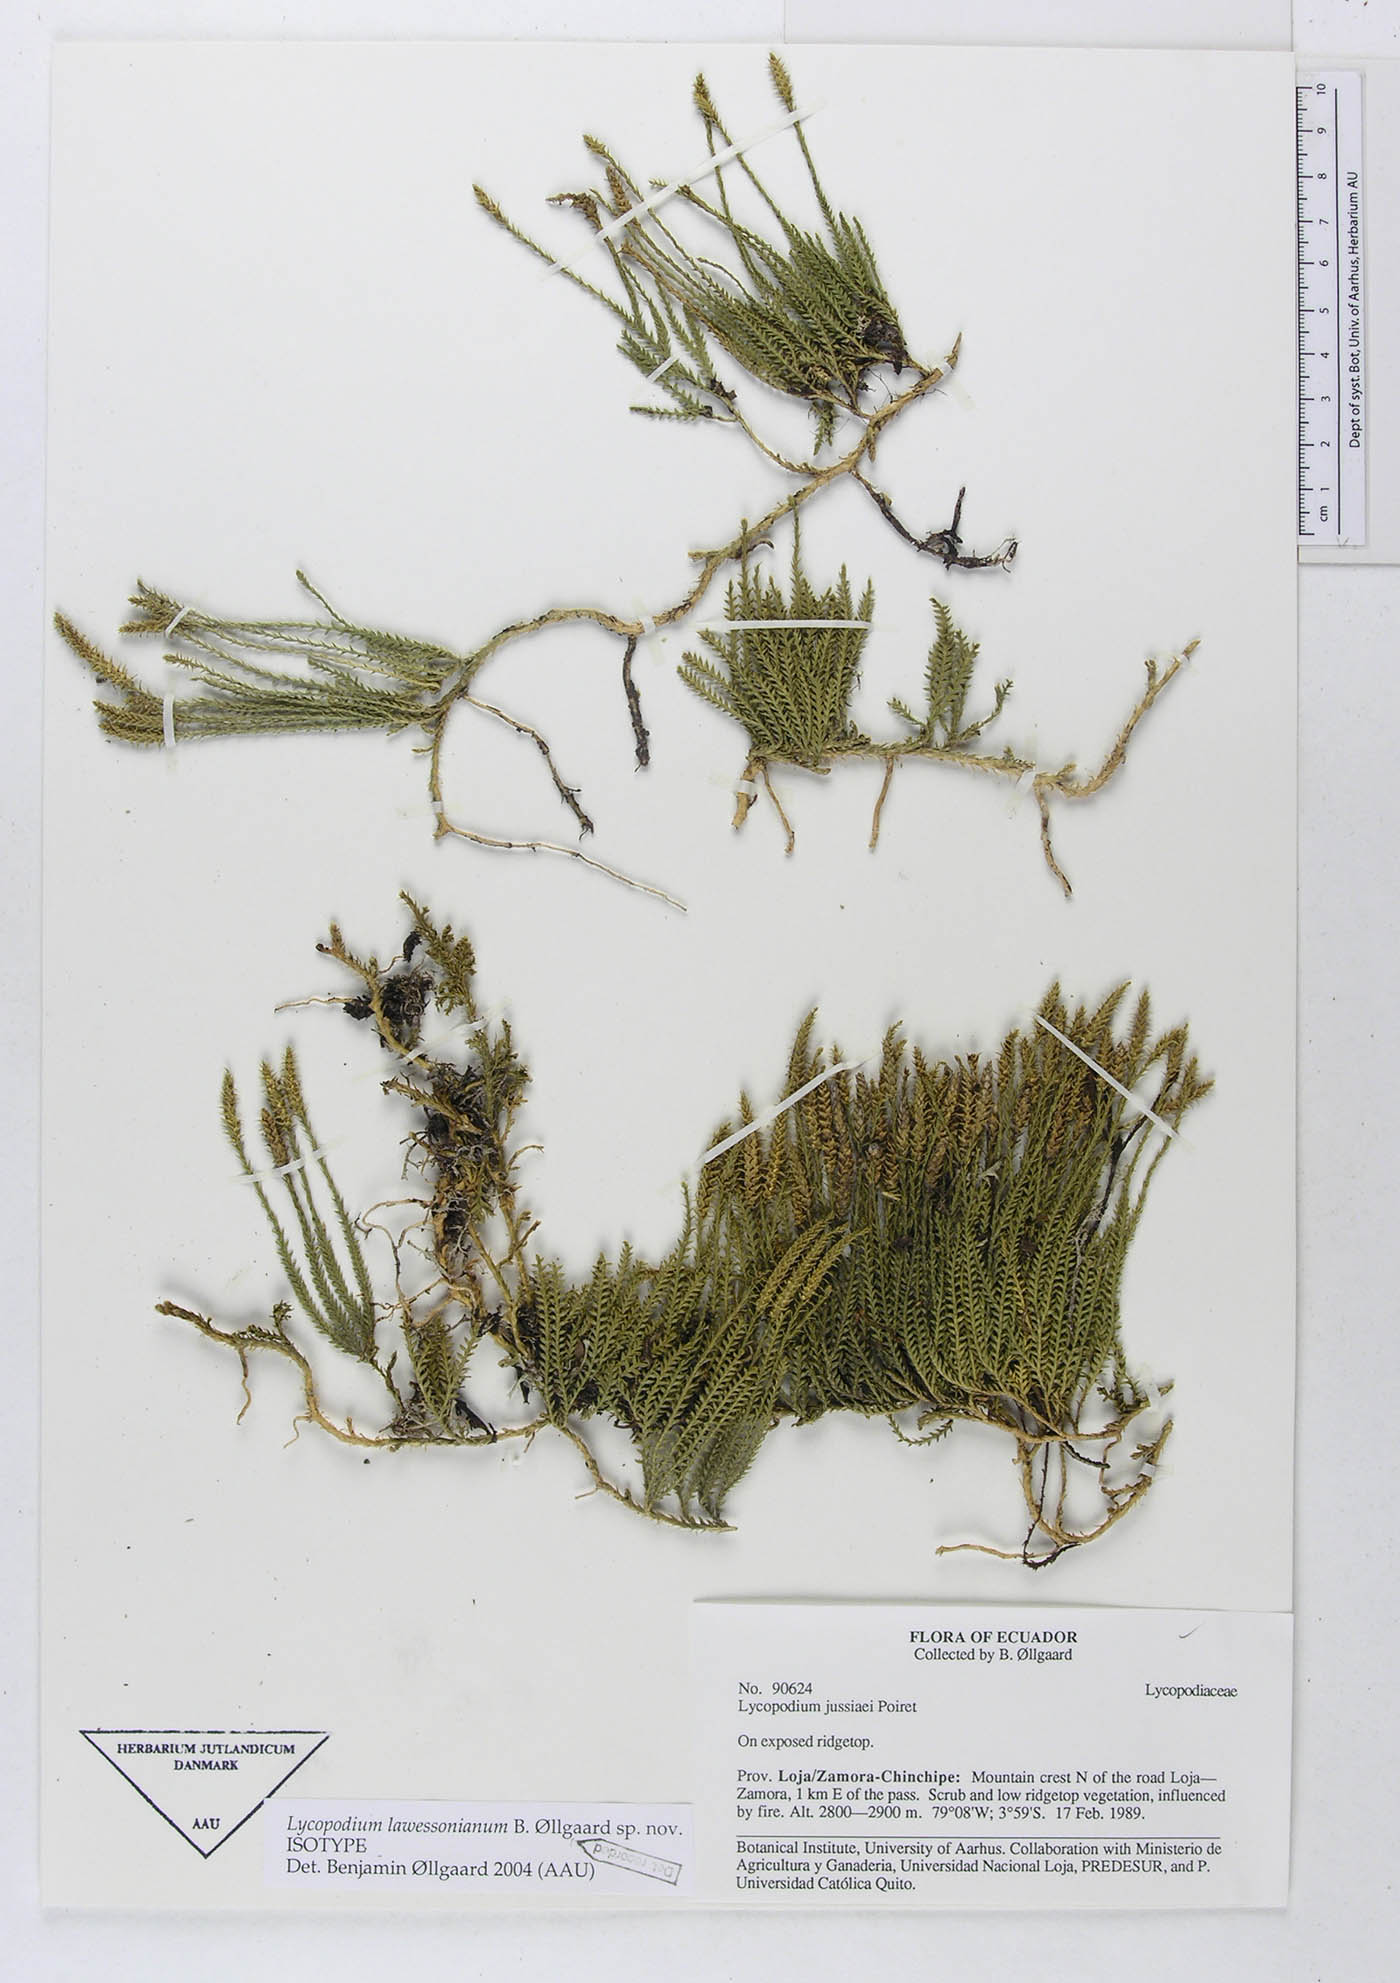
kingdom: Plantae
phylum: Tracheophyta
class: Lycopodiopsida
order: Lycopodiales
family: Lycopodiaceae
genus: Diphasium
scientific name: Diphasium lawessonianum
